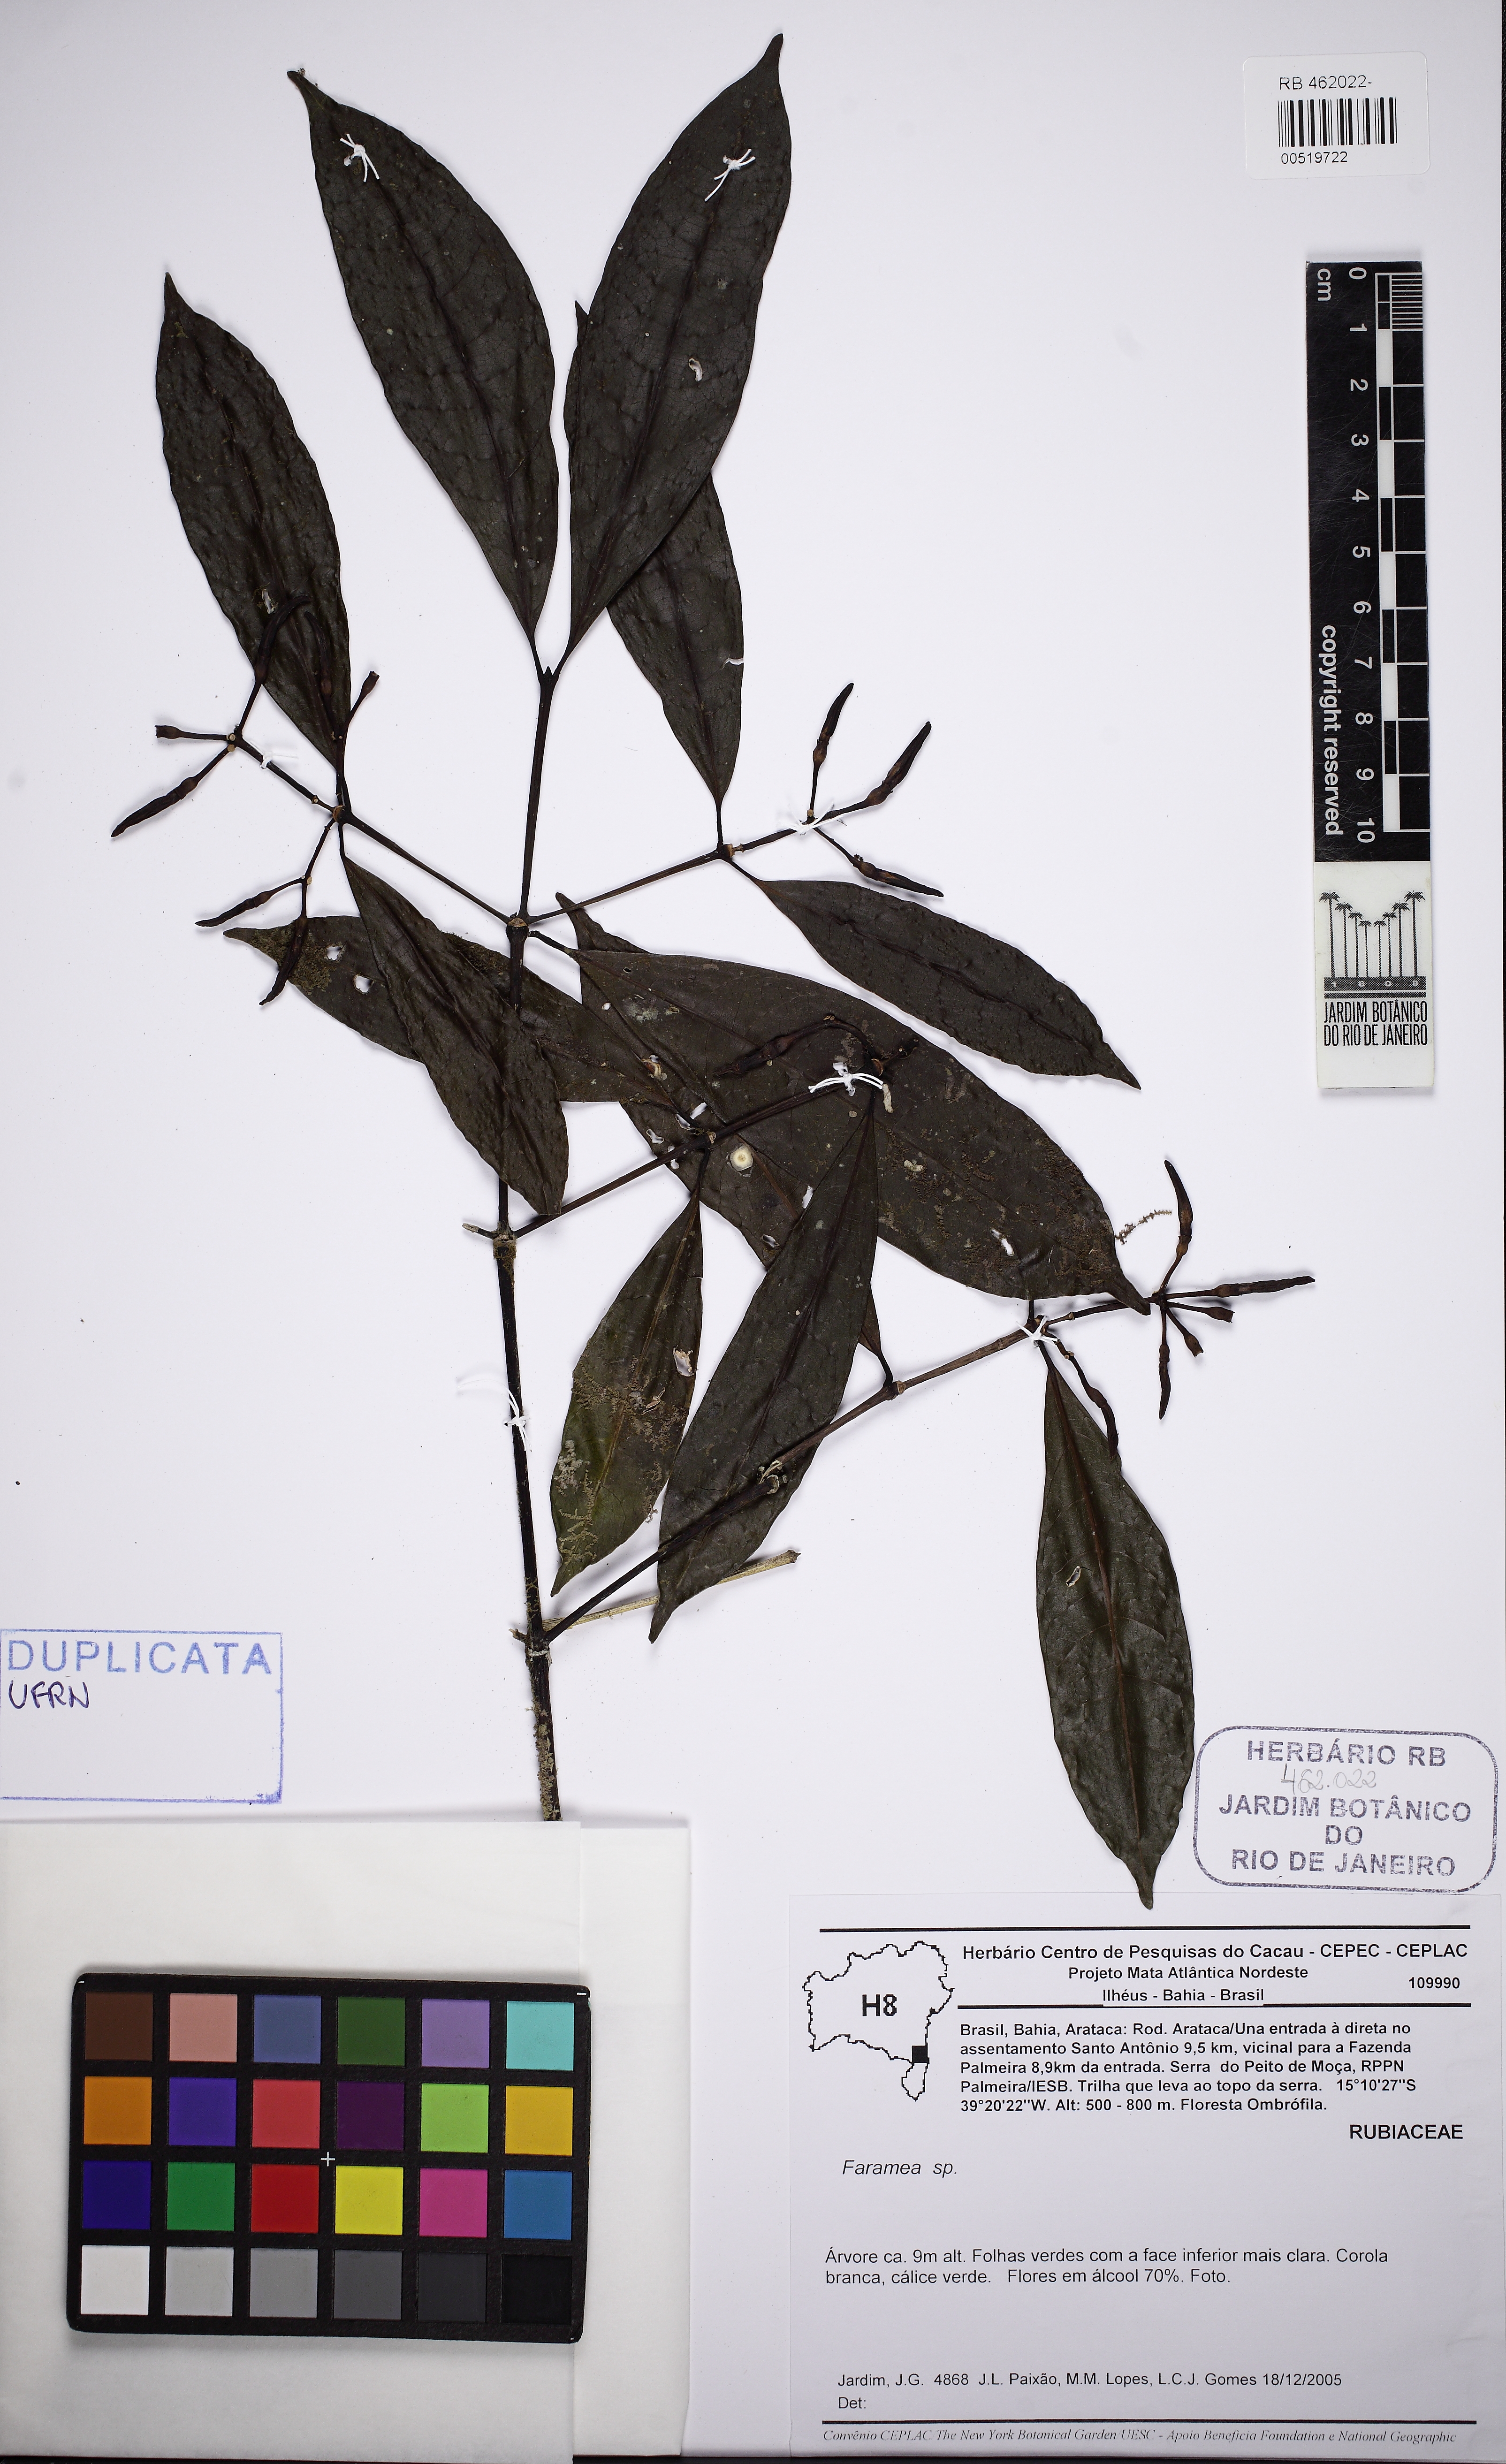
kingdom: Plantae
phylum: Tracheophyta
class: Magnoliopsida
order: Gentianales
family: Rubiaceae
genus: Faramea
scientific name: Faramea
